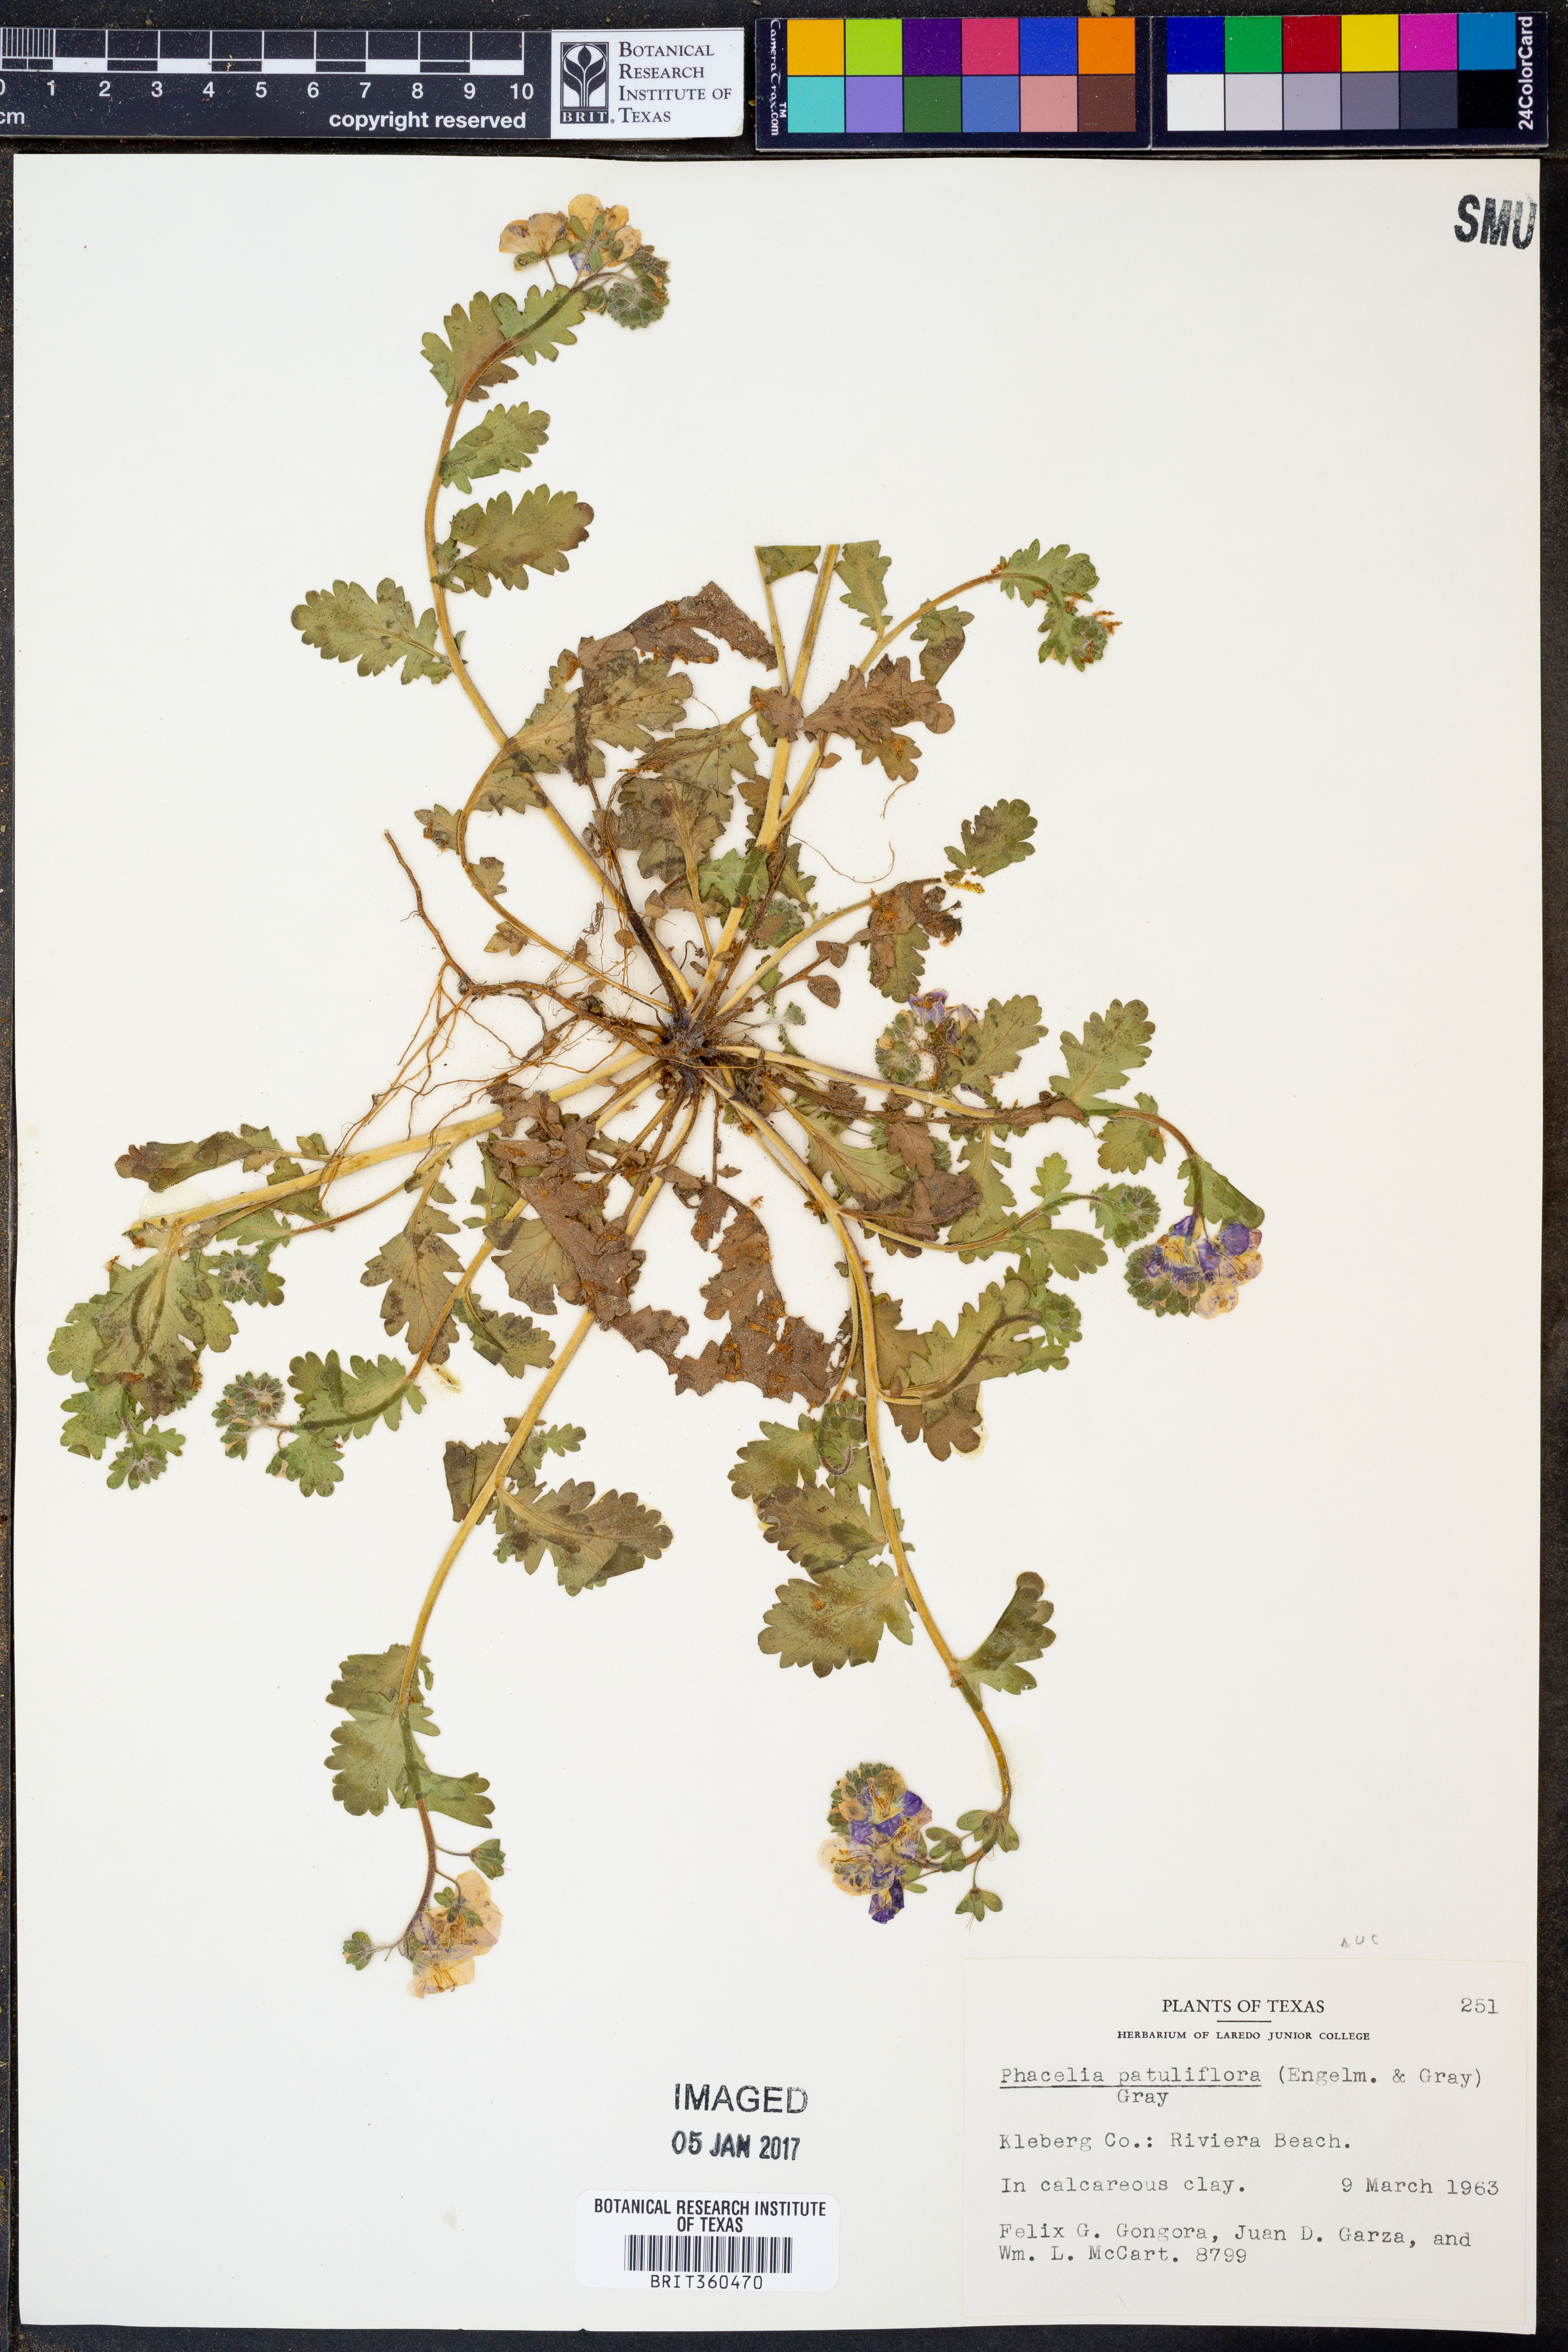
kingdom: Plantae
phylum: Tracheophyta
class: Magnoliopsida
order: Boraginales
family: Hydrophyllaceae
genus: Phacelia
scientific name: Phacelia patuliflora
